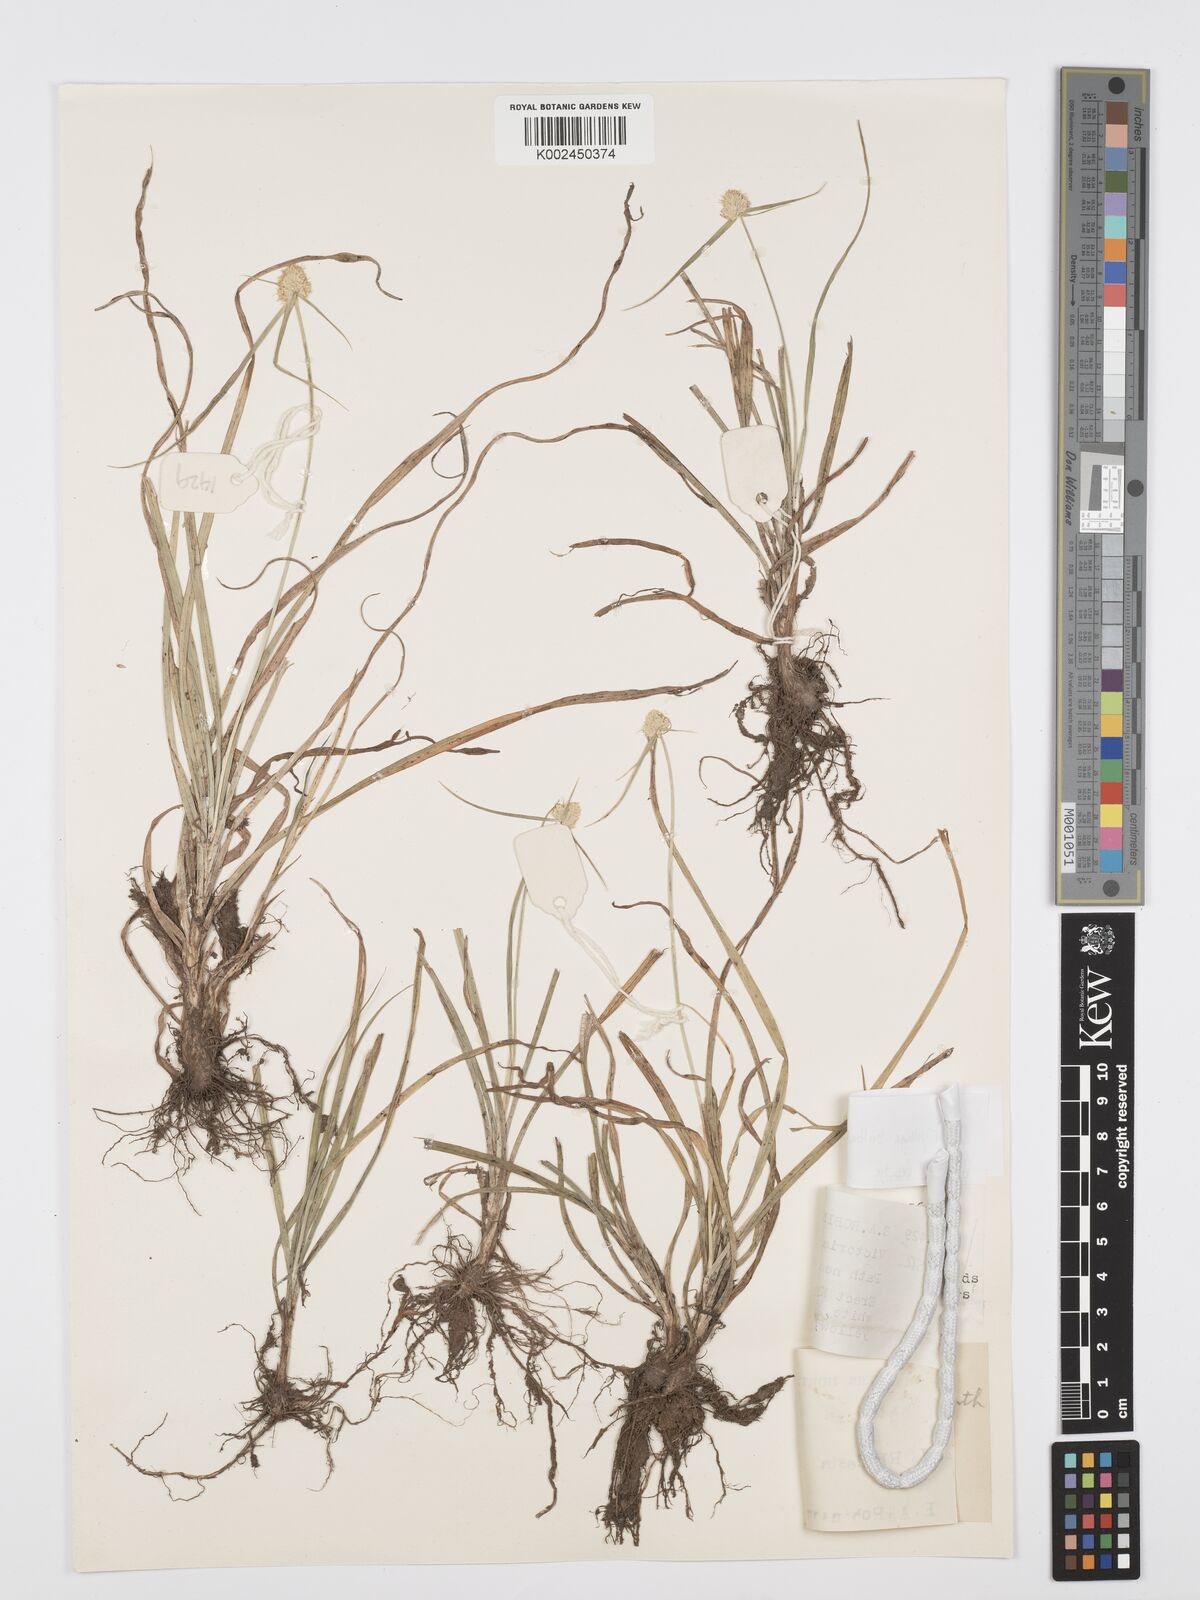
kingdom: Plantae
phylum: Tracheophyta
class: Liliopsida
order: Poales
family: Cyperaceae
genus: Cyperus
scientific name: Cyperus
